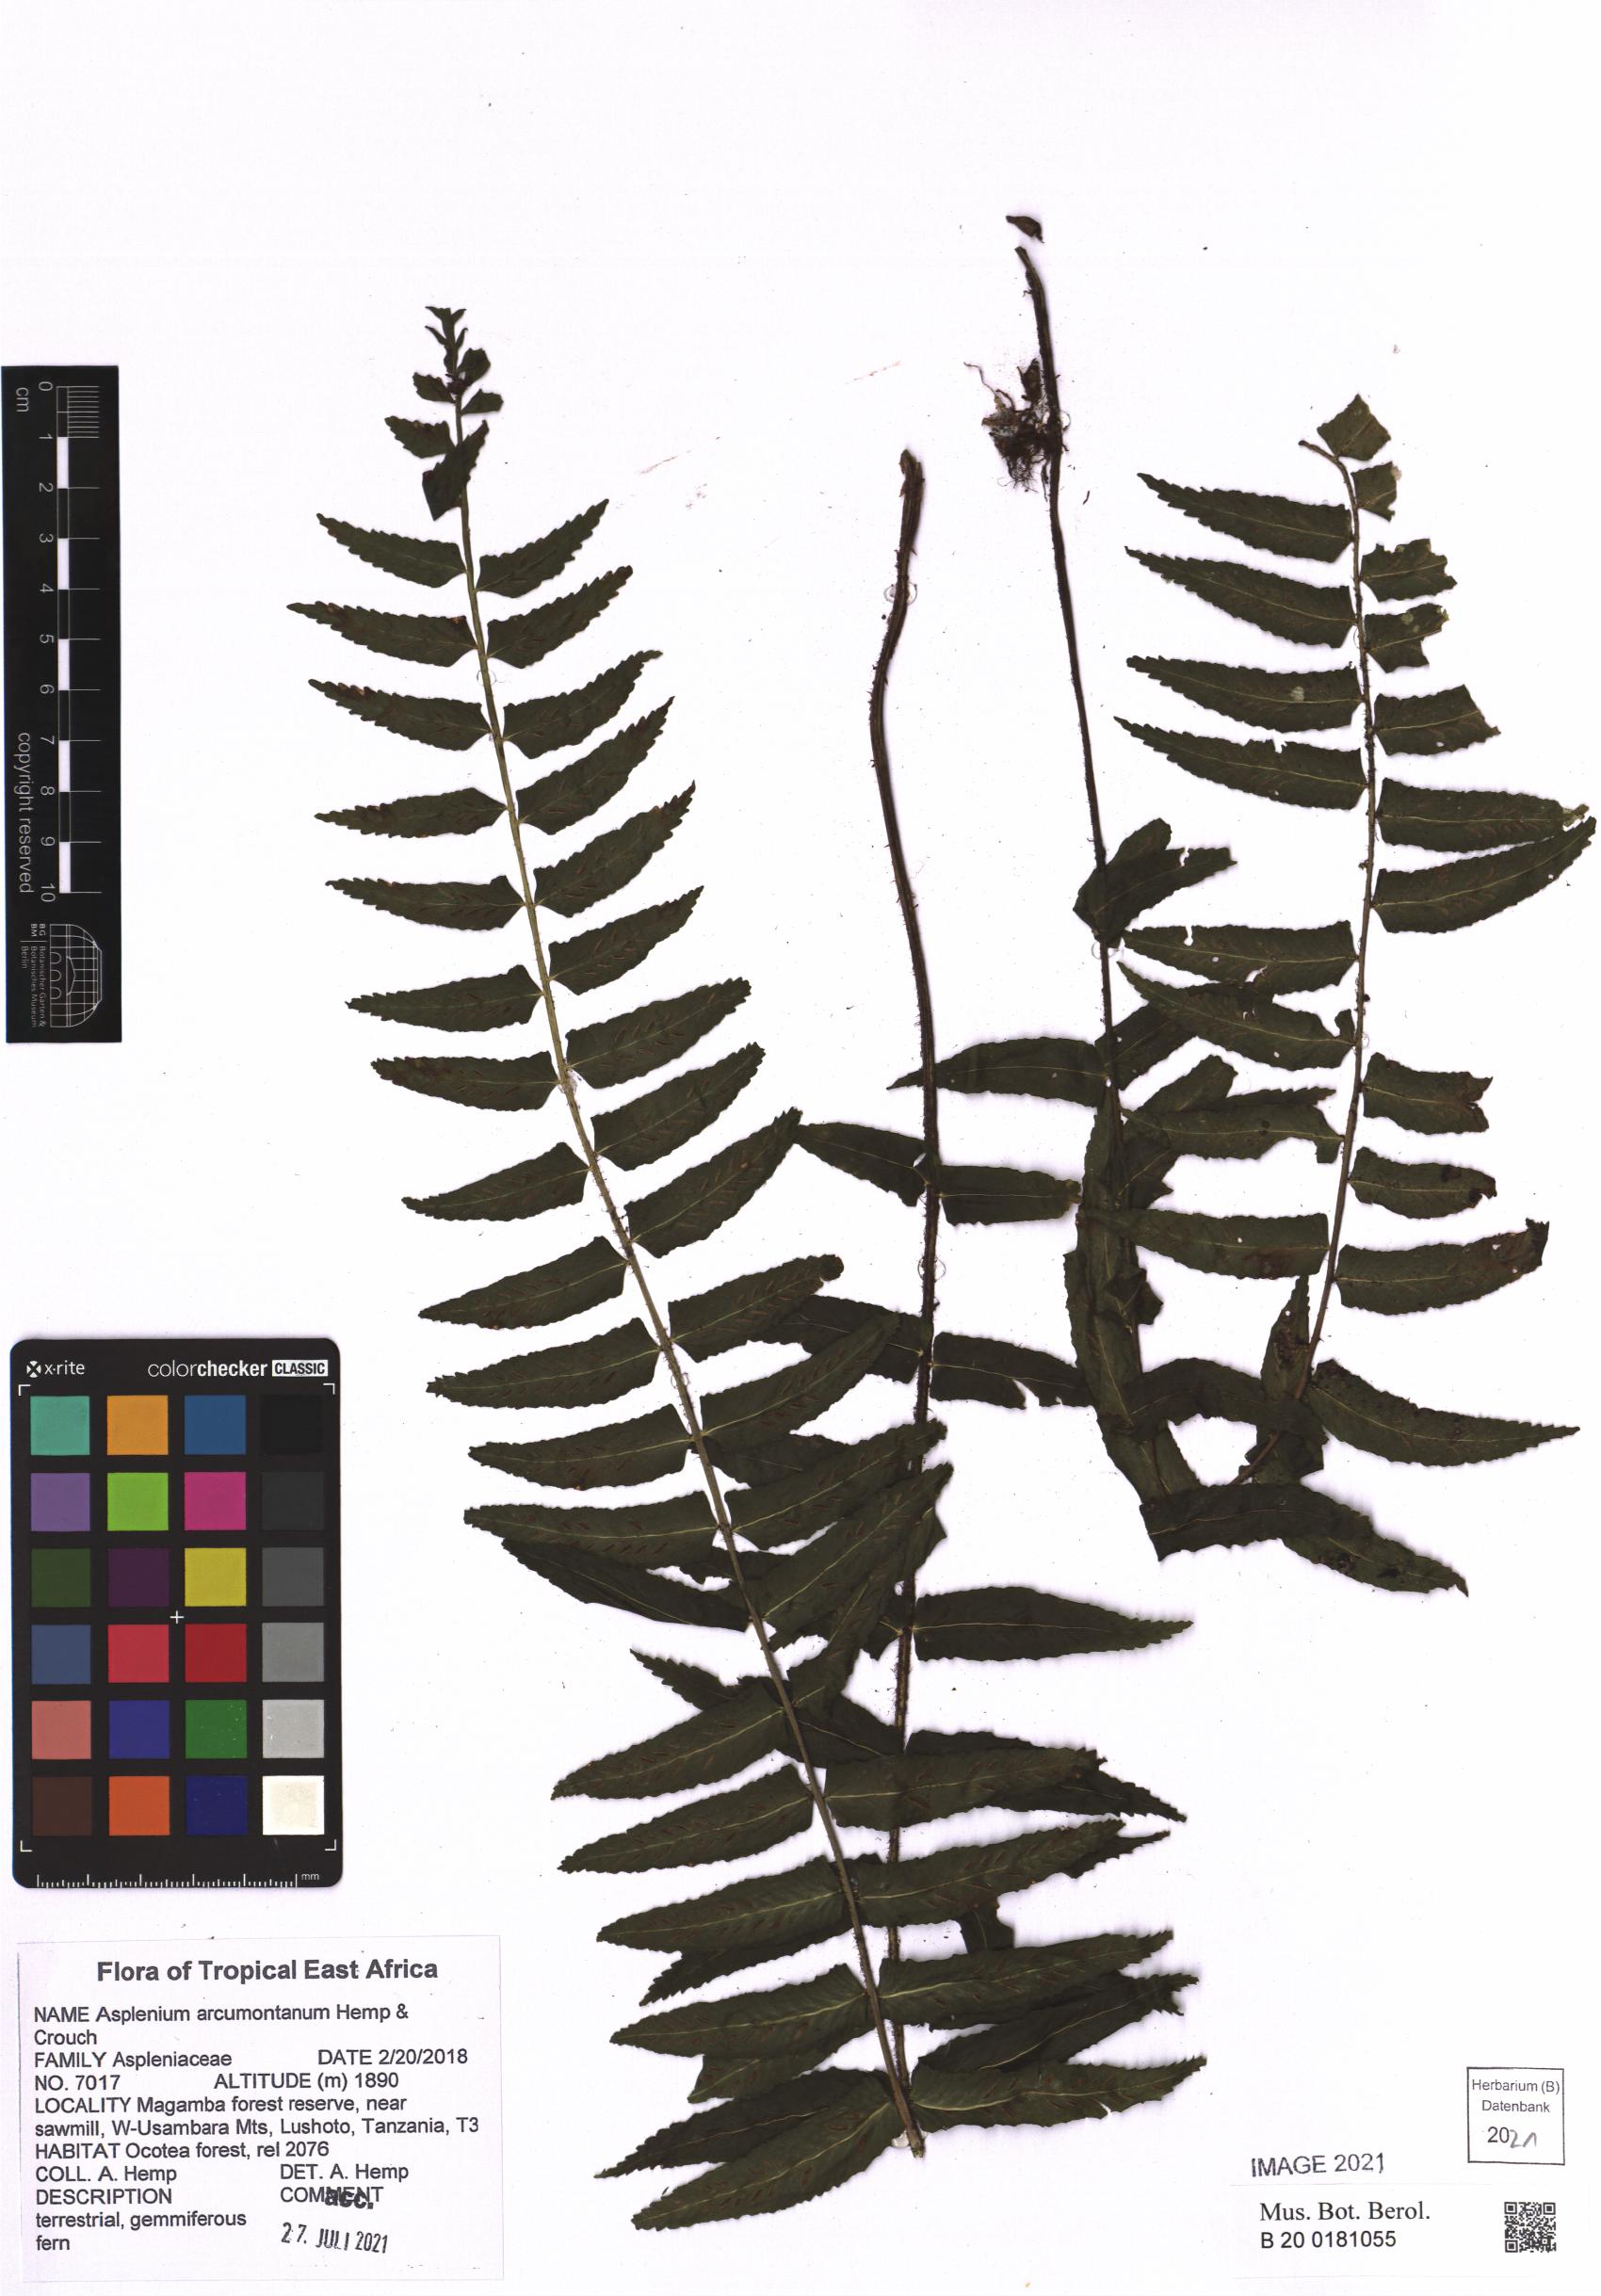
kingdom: Plantae
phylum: Tracheophyta
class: Polypodiopsida
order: Polypodiales
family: Aspleniaceae
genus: Asplenium
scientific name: Asplenium arcumontanum
